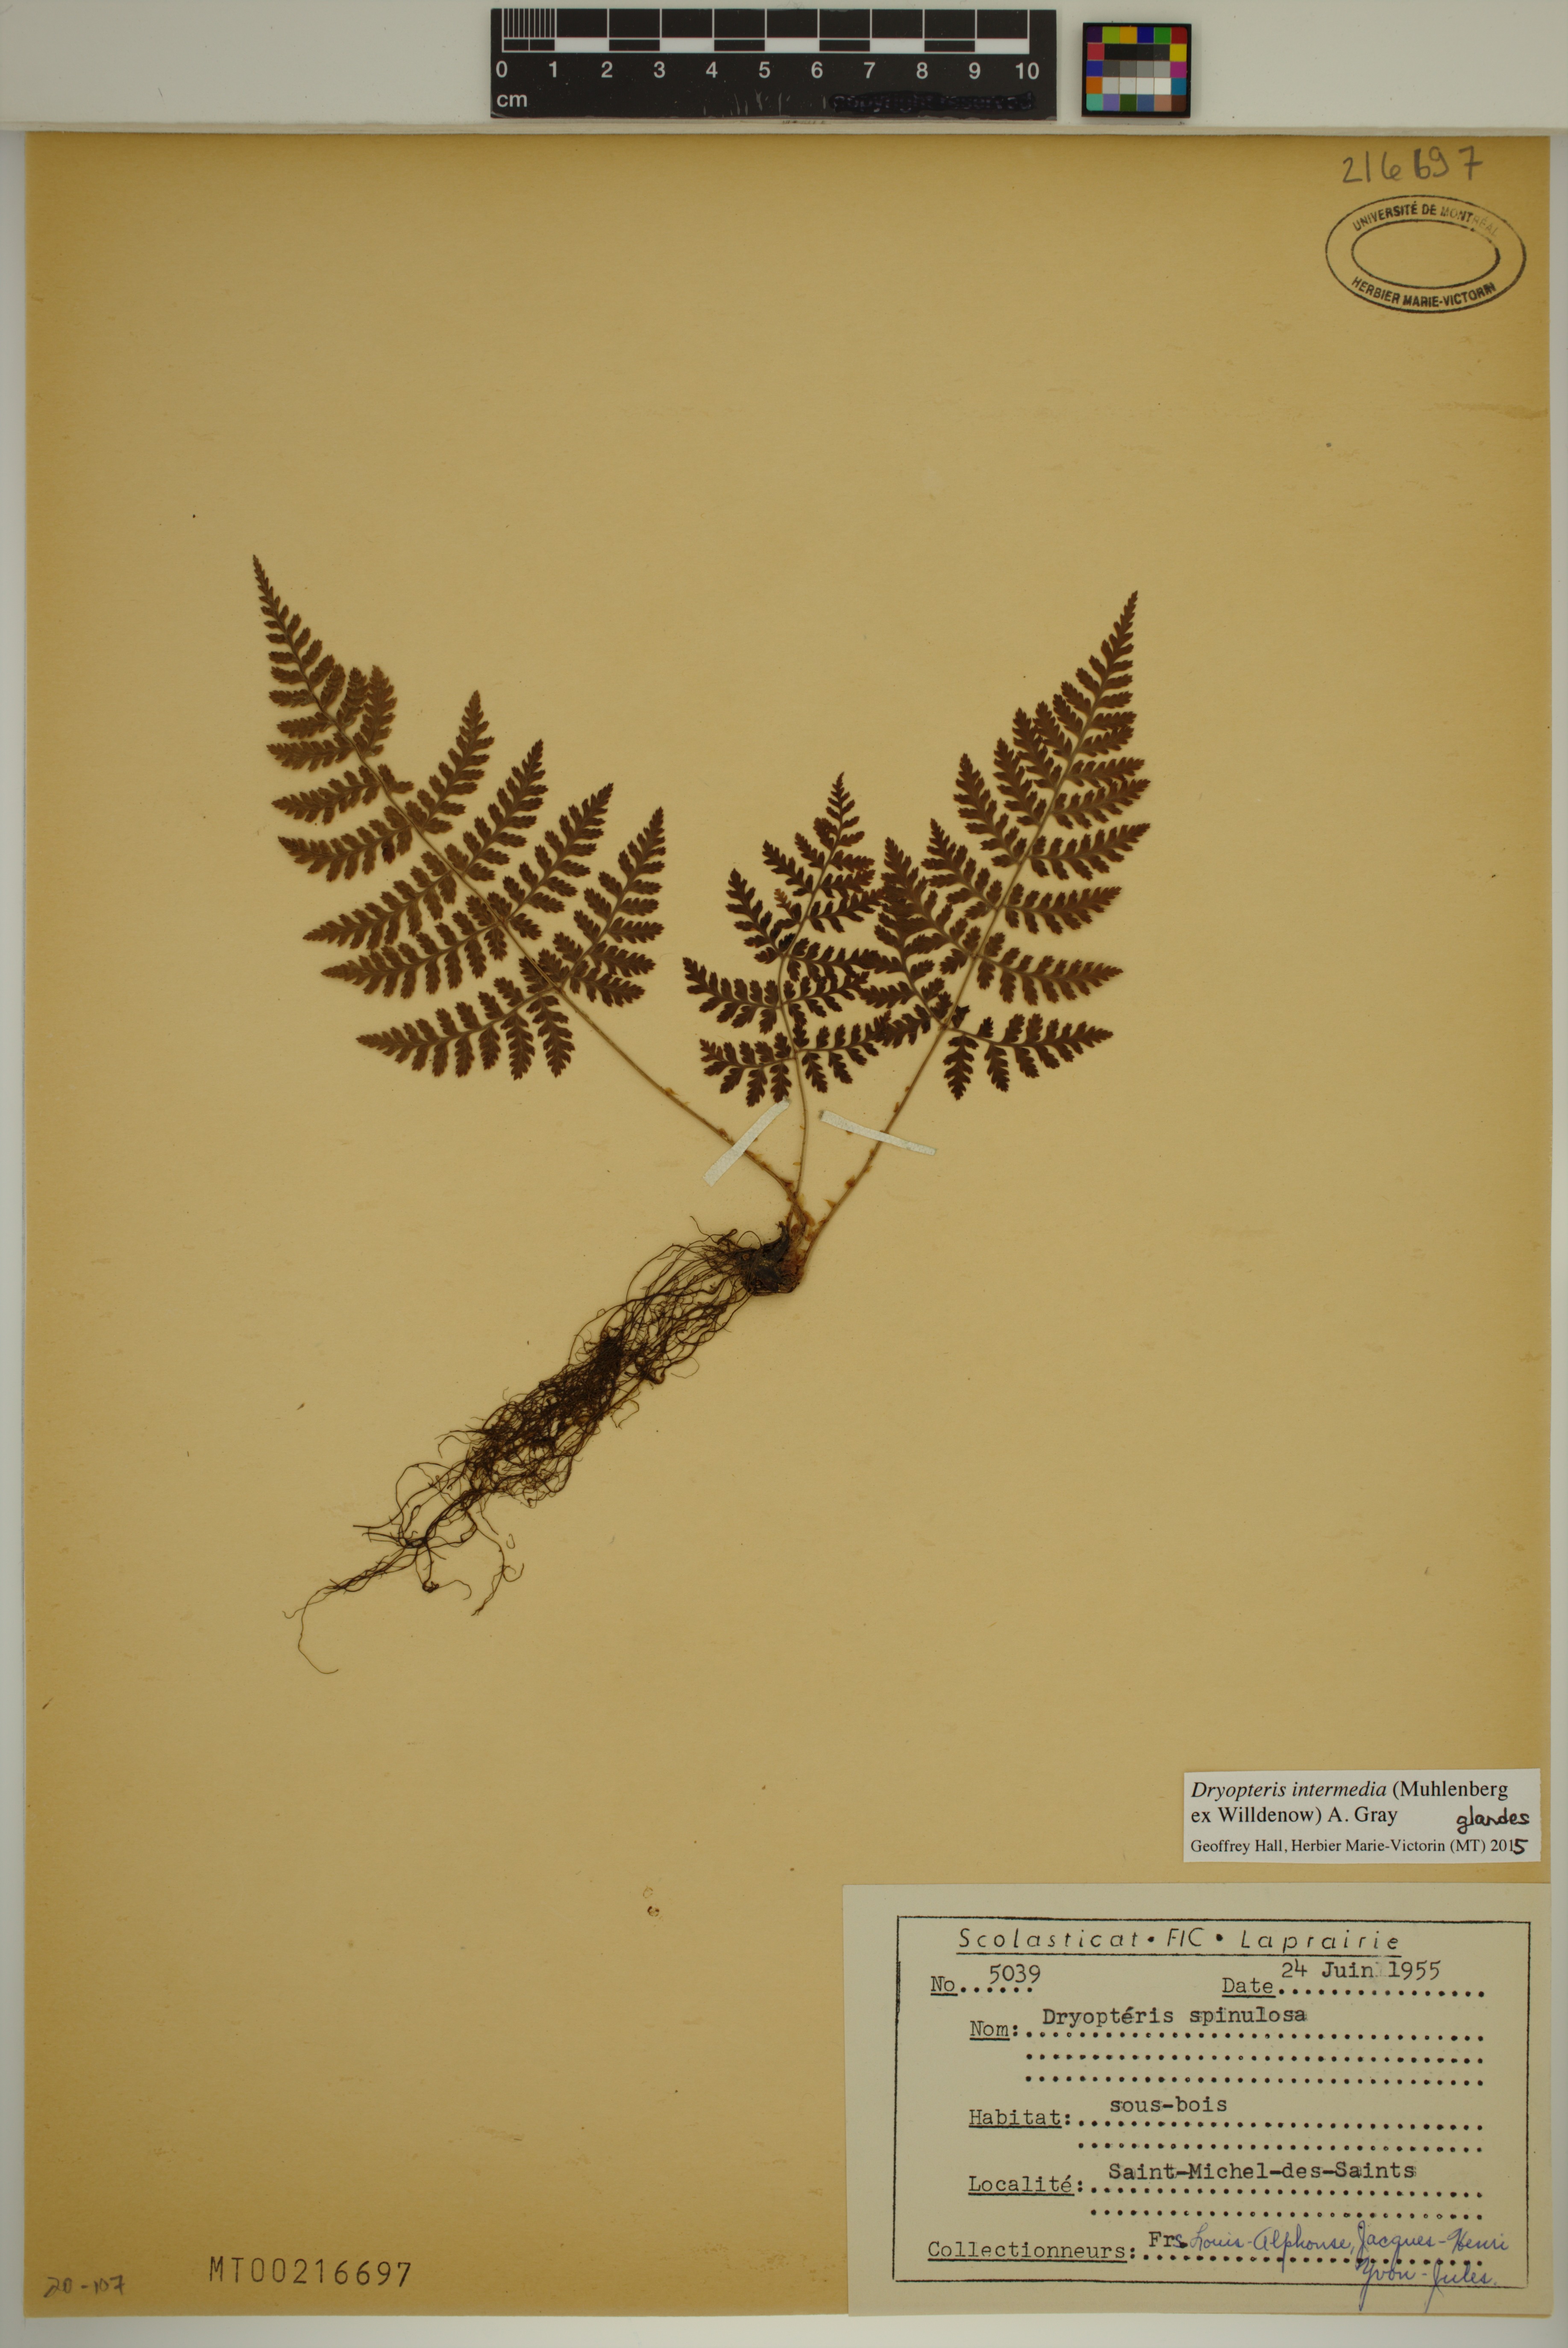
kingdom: Plantae
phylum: Tracheophyta
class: Polypodiopsida
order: Polypodiales
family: Dryopteridaceae
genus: Dryopteris
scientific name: Dryopteris intermedia
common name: Evergreen wood fern
